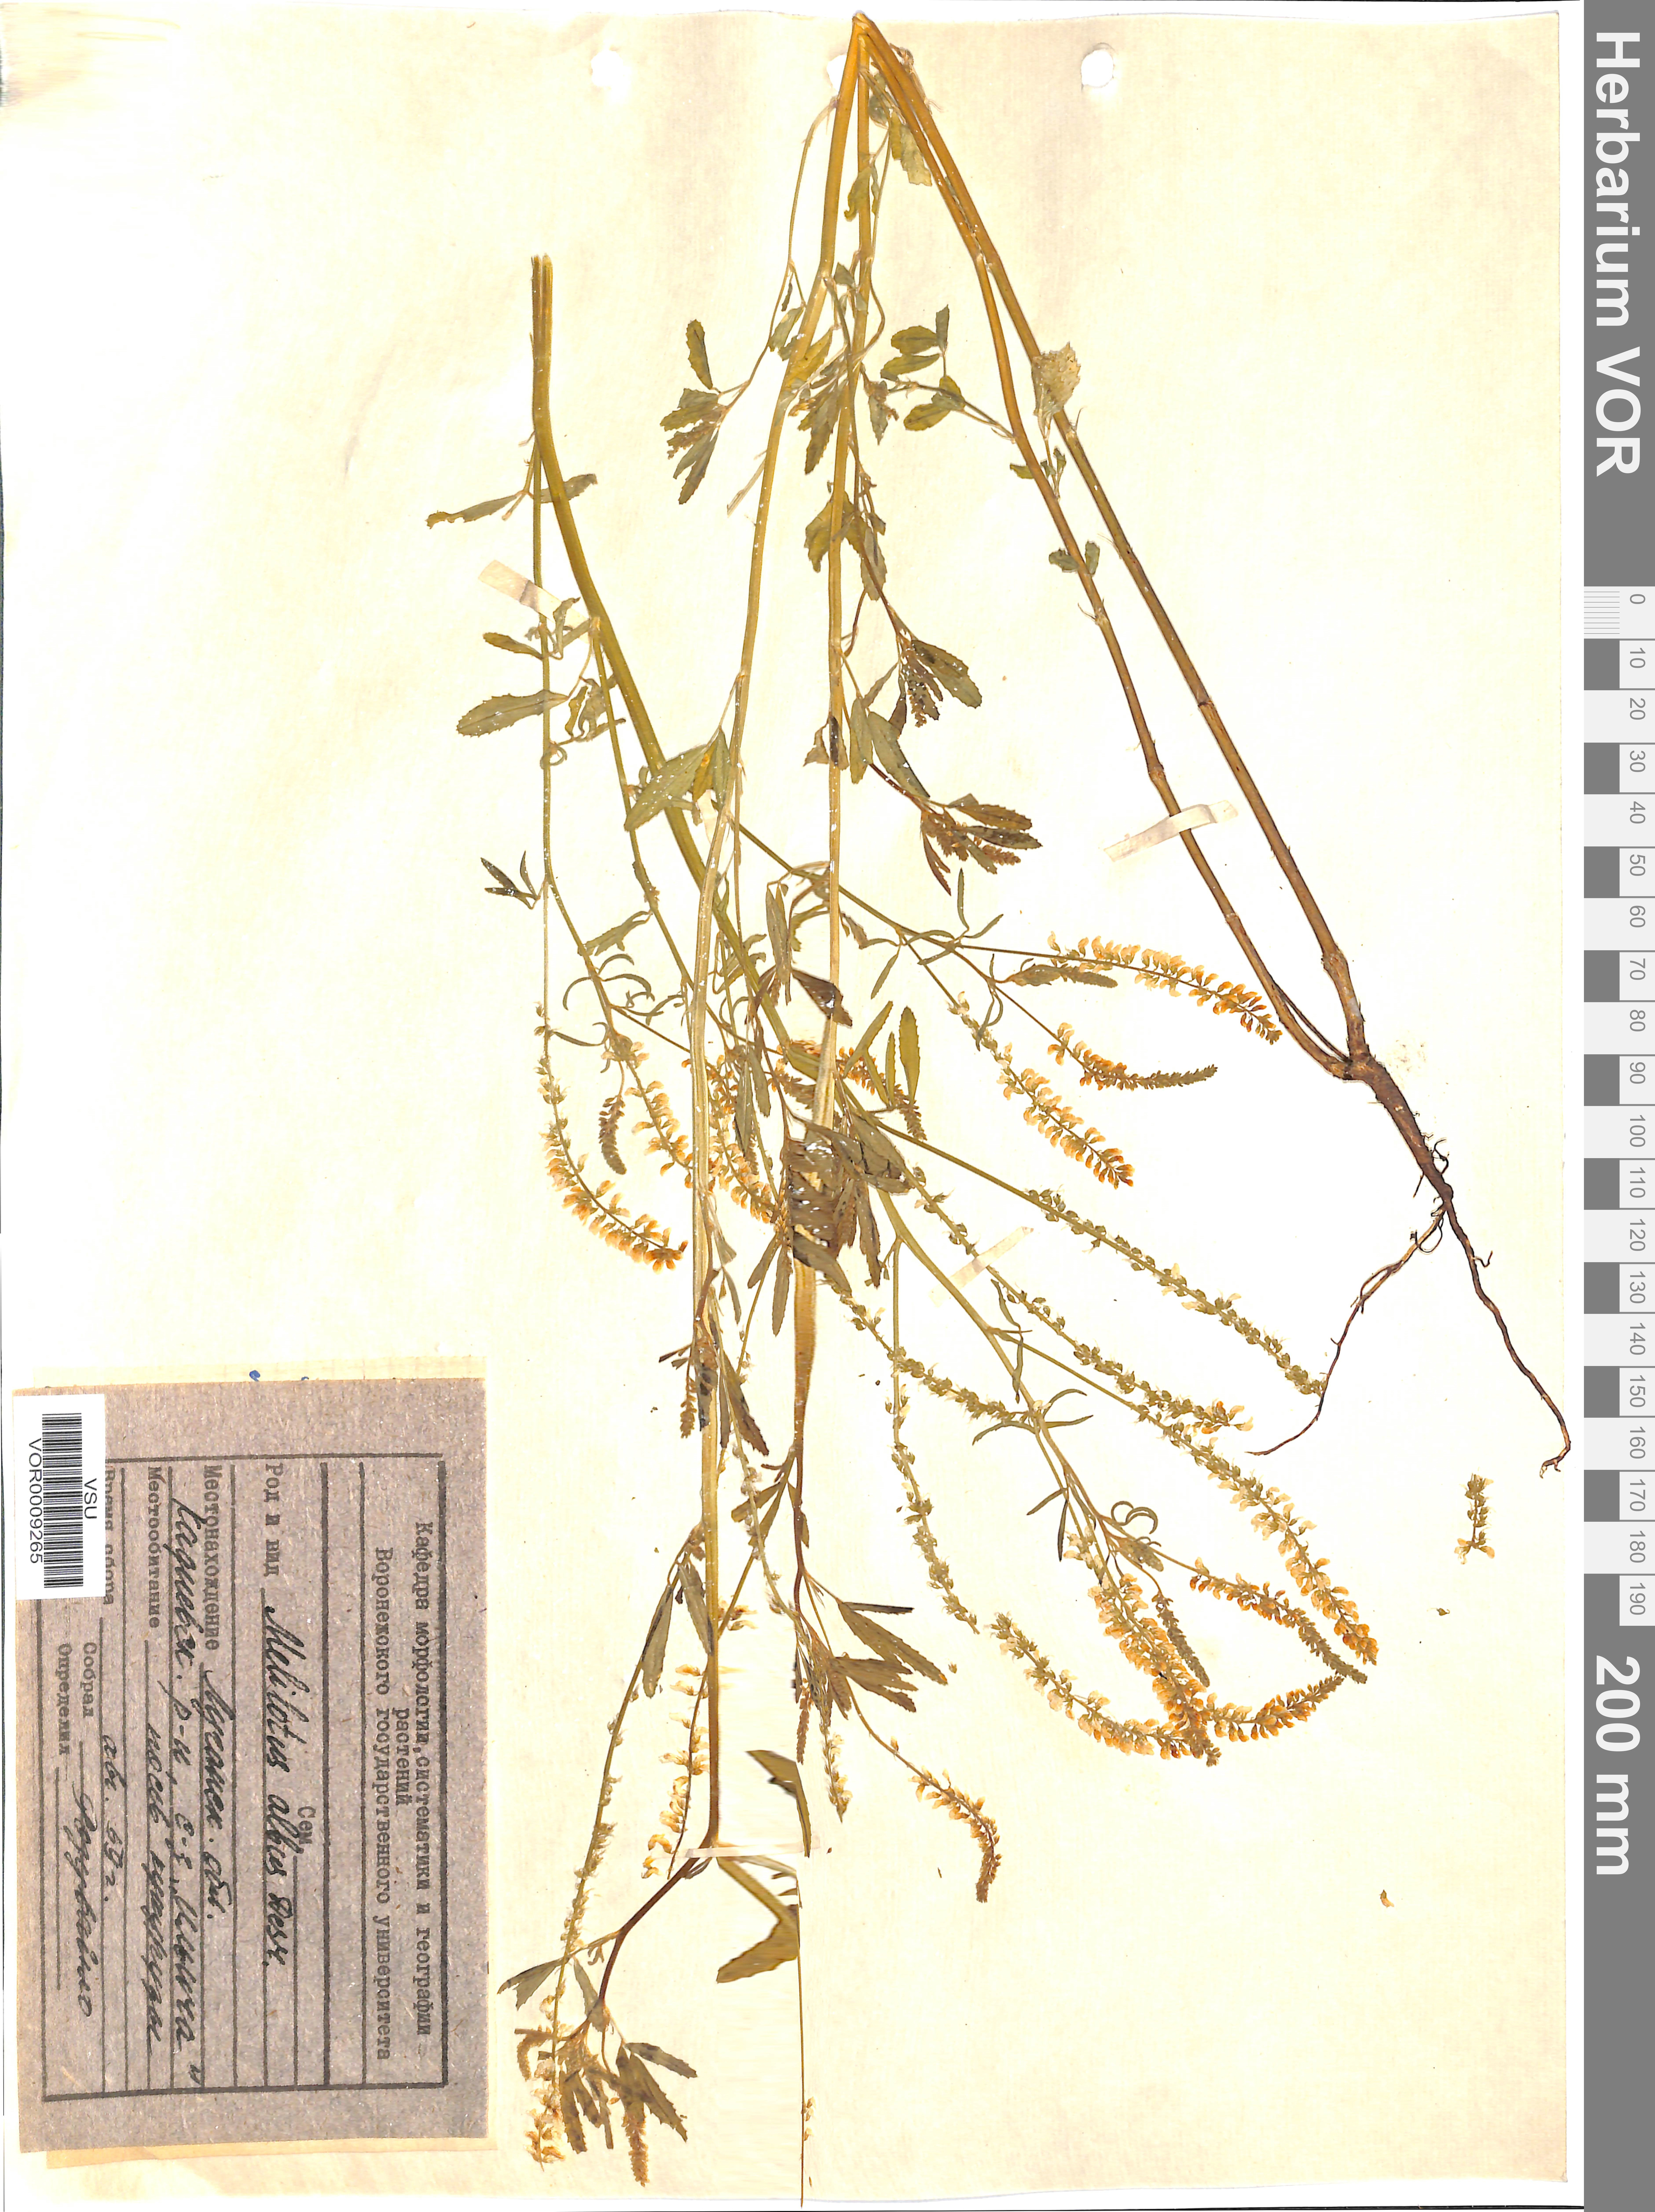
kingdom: Plantae
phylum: Tracheophyta
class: Magnoliopsida
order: Fabales
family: Fabaceae
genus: Melilotus
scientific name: Melilotus albus
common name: White melilot
